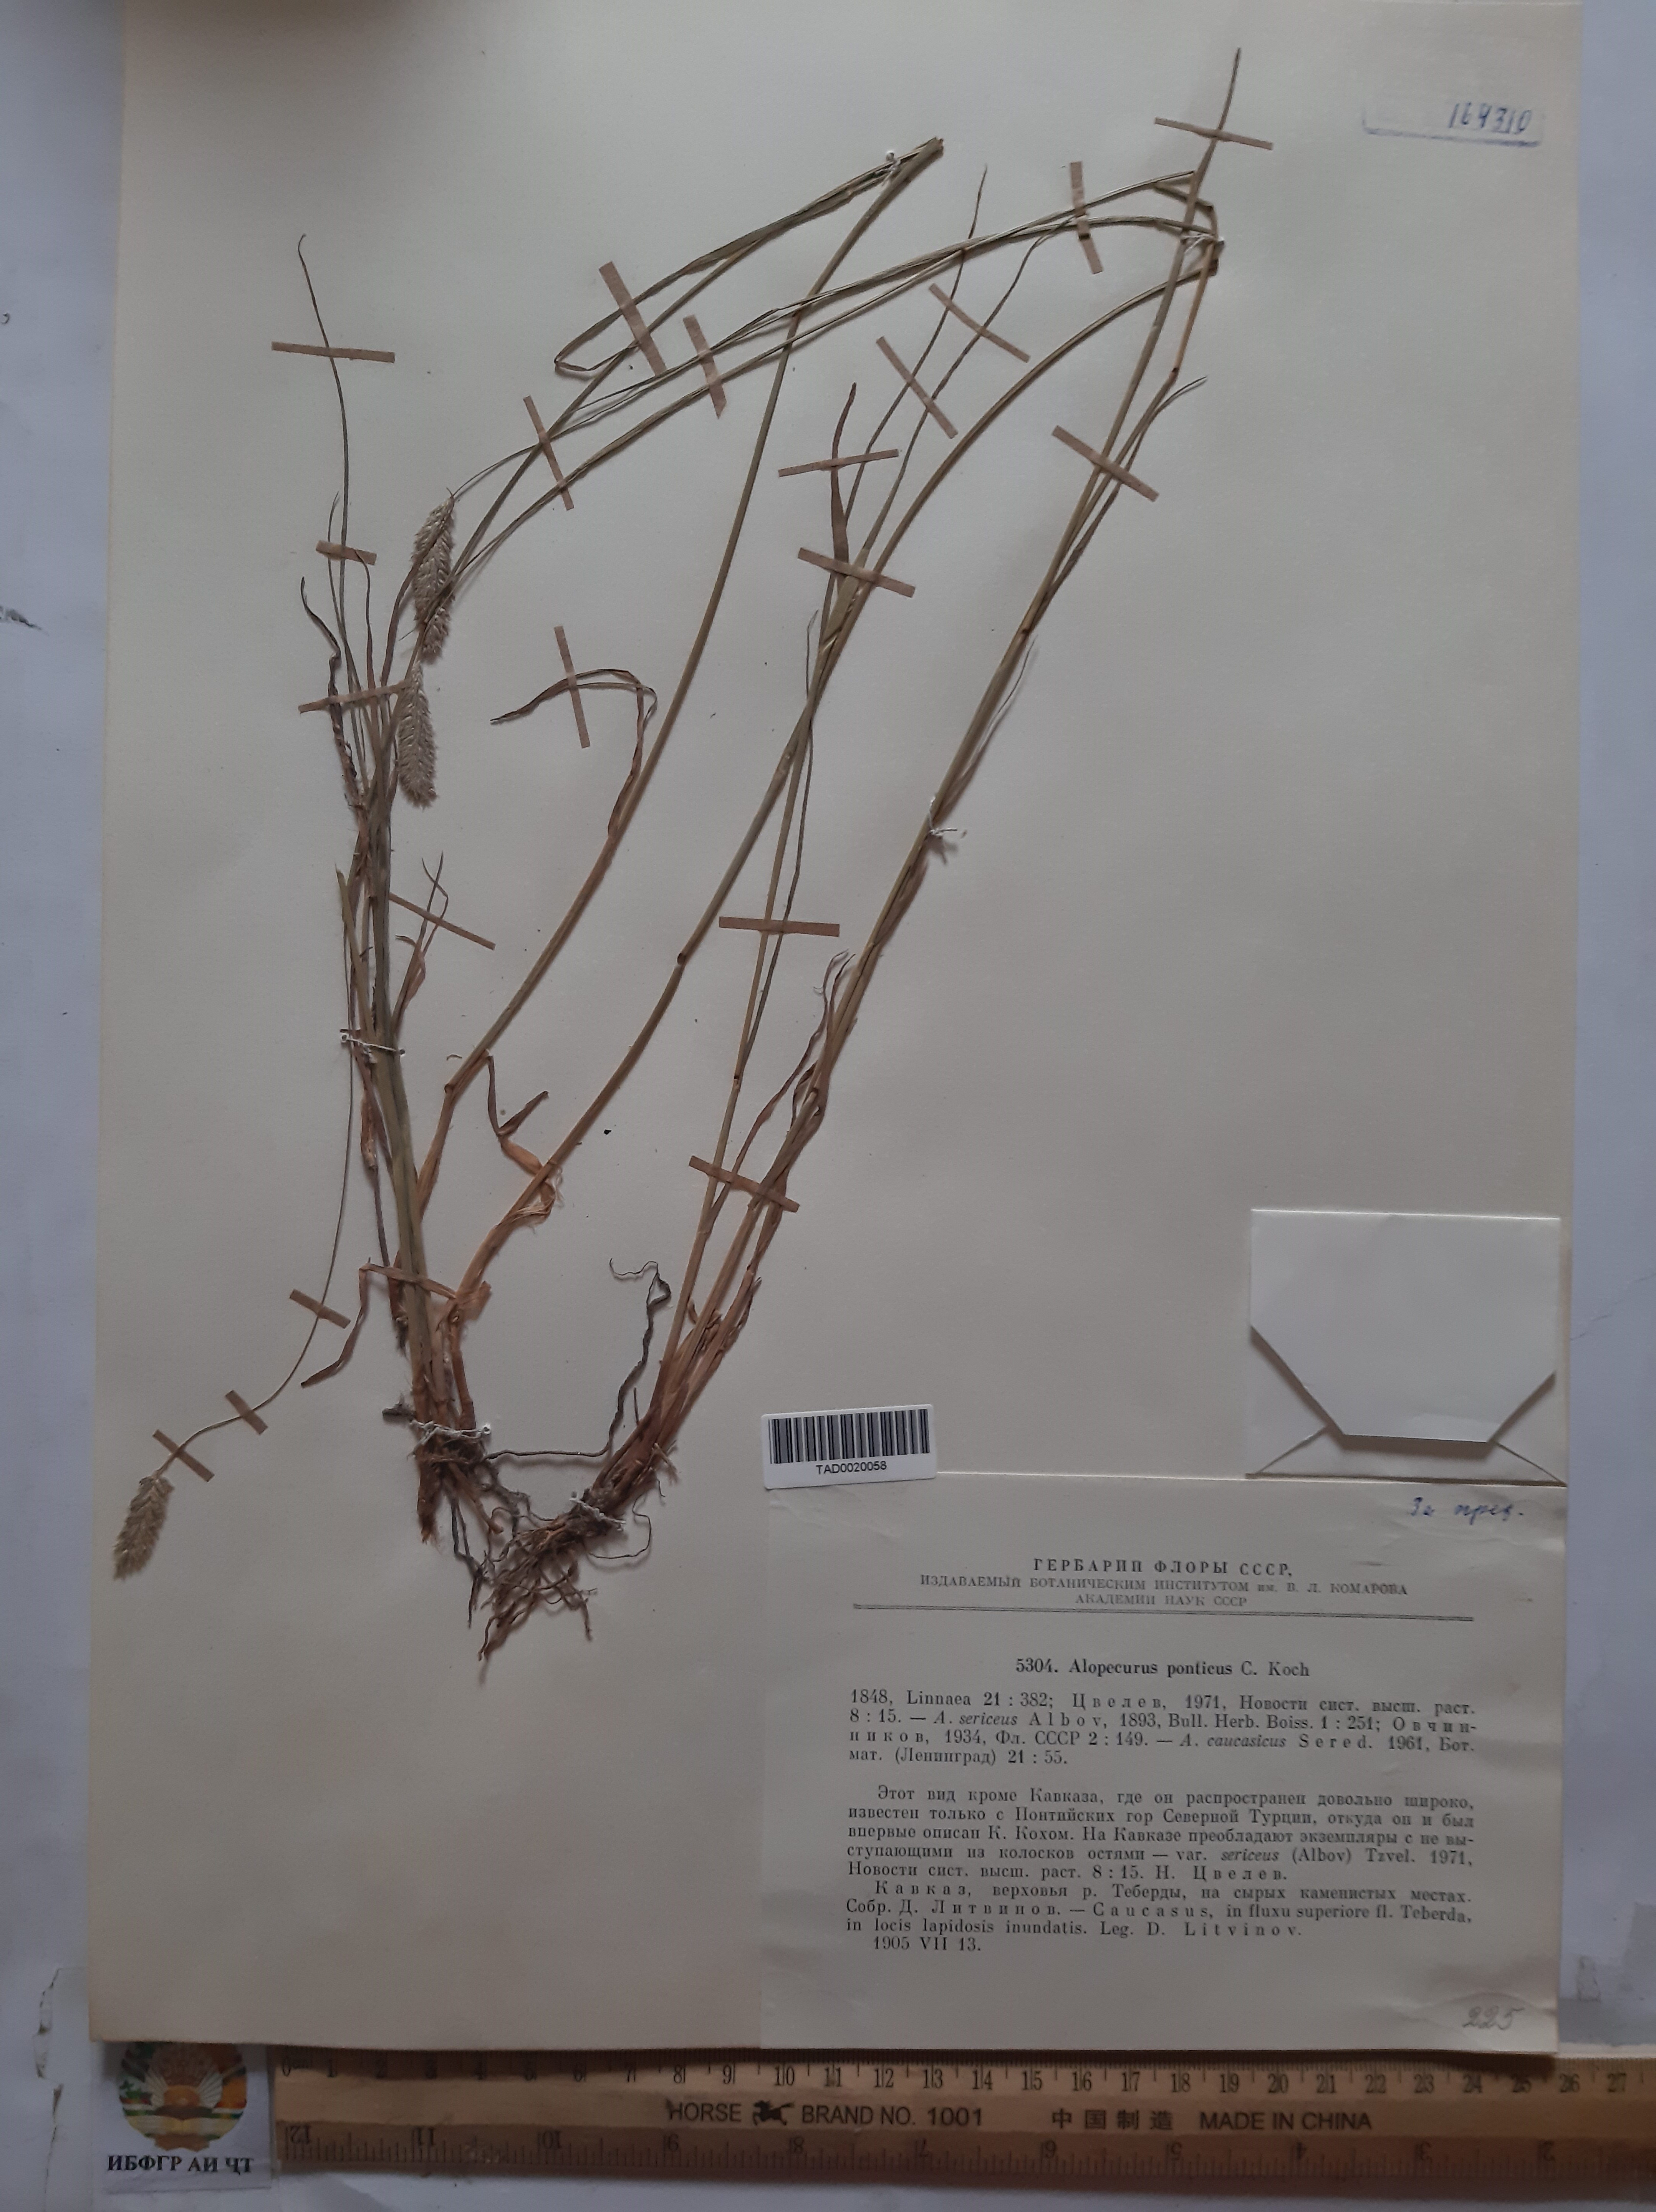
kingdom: Plantae
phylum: Tracheophyta
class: Liliopsida
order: Poales
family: Poaceae
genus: Alopecurus
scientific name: Alopecurus ponticus
